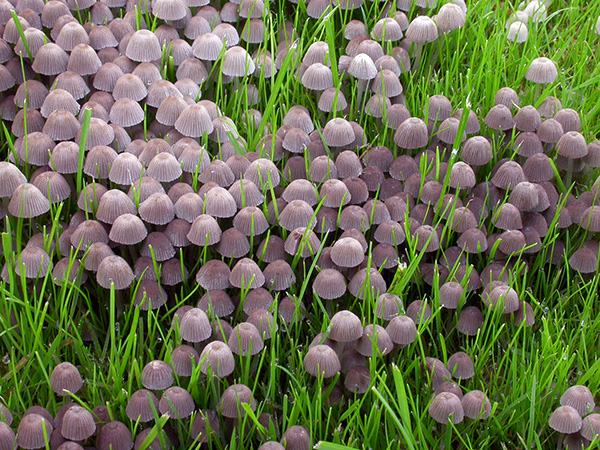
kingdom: Fungi
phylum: Basidiomycota
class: Agaricomycetes
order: Agaricales
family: Psathyrellaceae
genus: Coprinellus
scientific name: Coprinellus disseminatus
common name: bredsået blækhat
